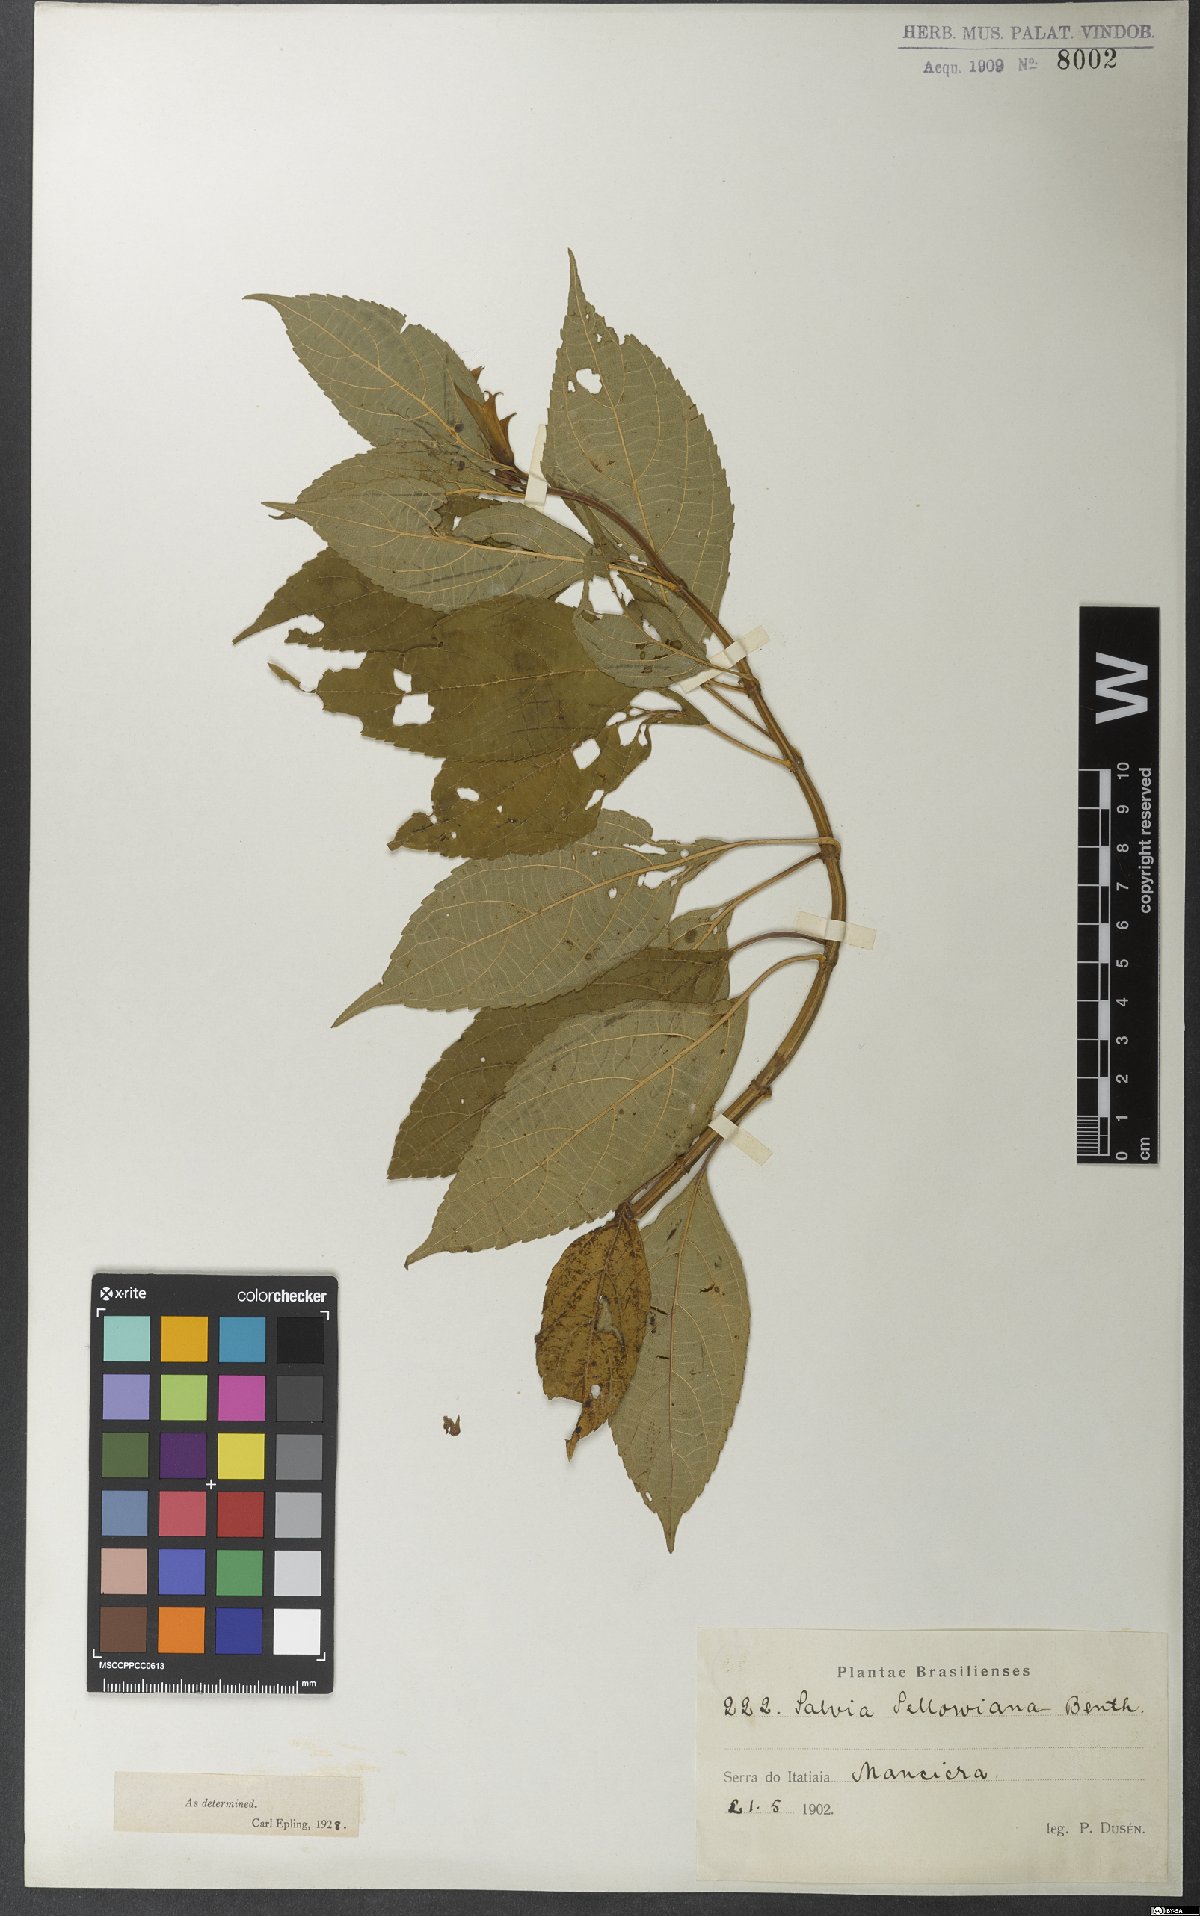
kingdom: Plantae
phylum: Tracheophyta
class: Magnoliopsida
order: Lamiales
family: Lamiaceae
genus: Salvia
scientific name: Salvia sellowiana
